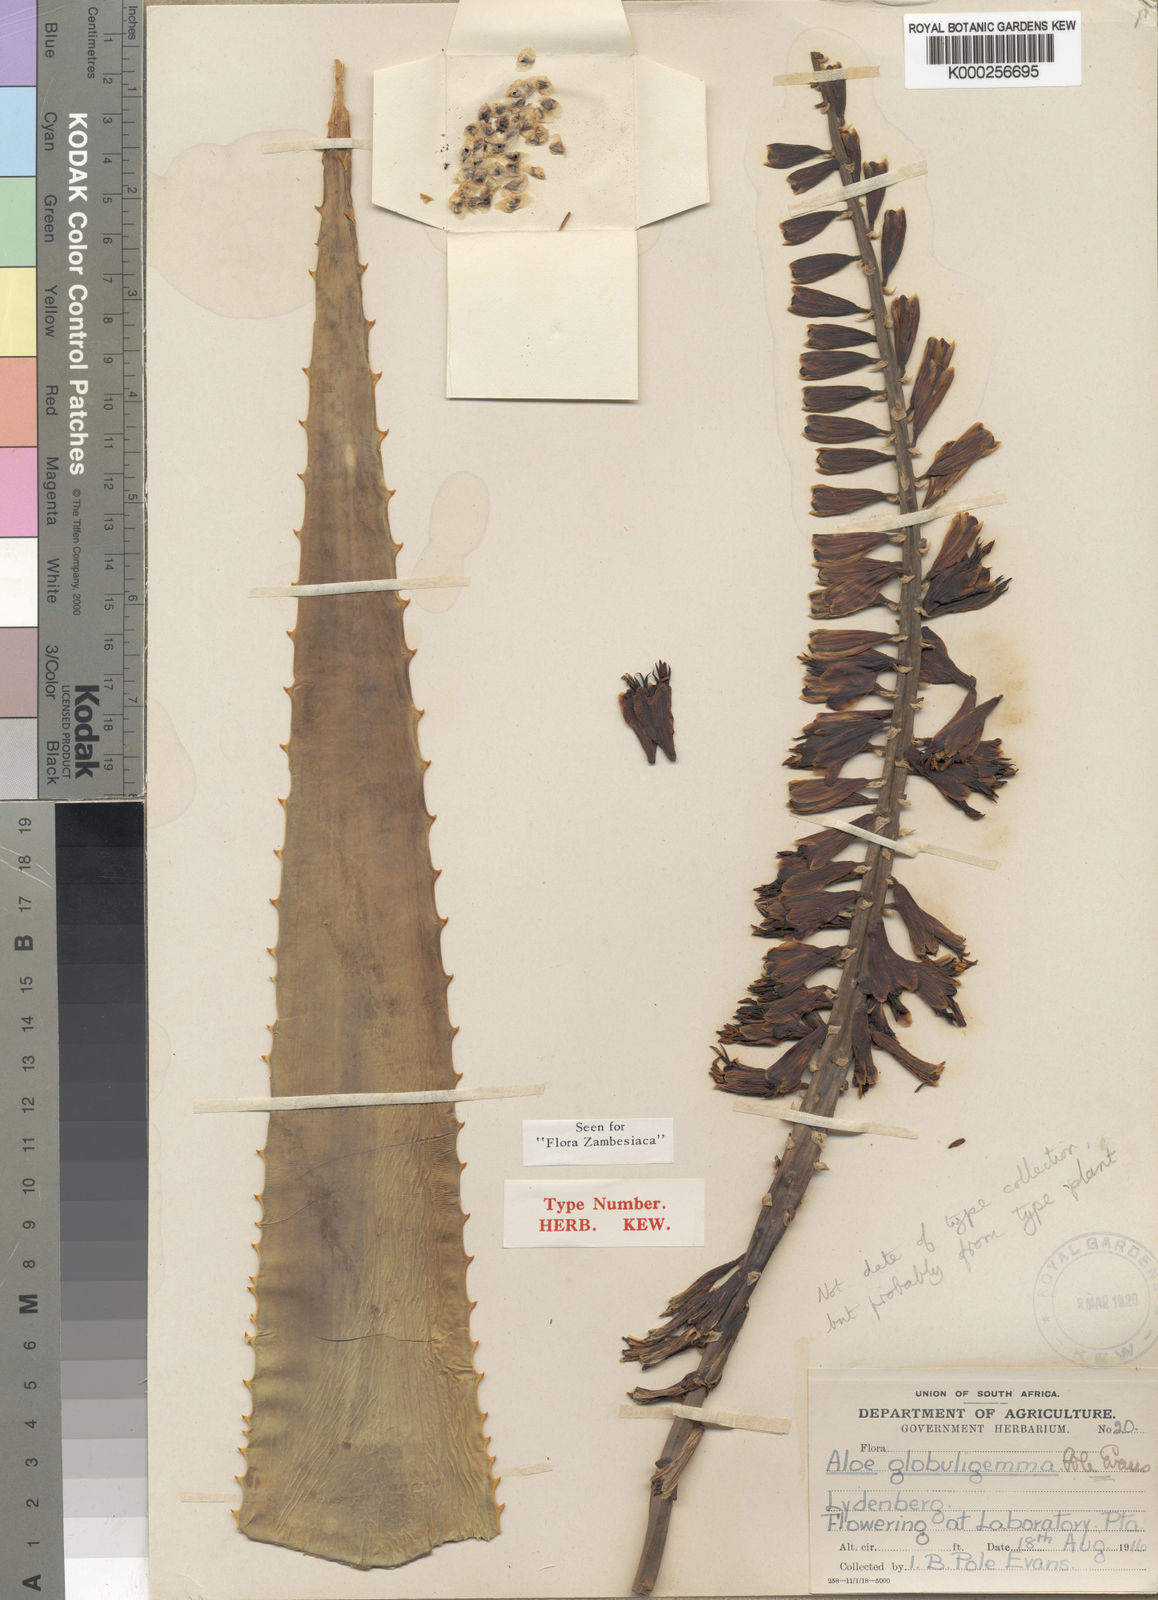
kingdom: Plantae
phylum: Tracheophyta
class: Liliopsida
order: Asparagales
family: Asphodelaceae
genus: Aloe
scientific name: Aloe globuligemma
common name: Witchdoctor's aloe
